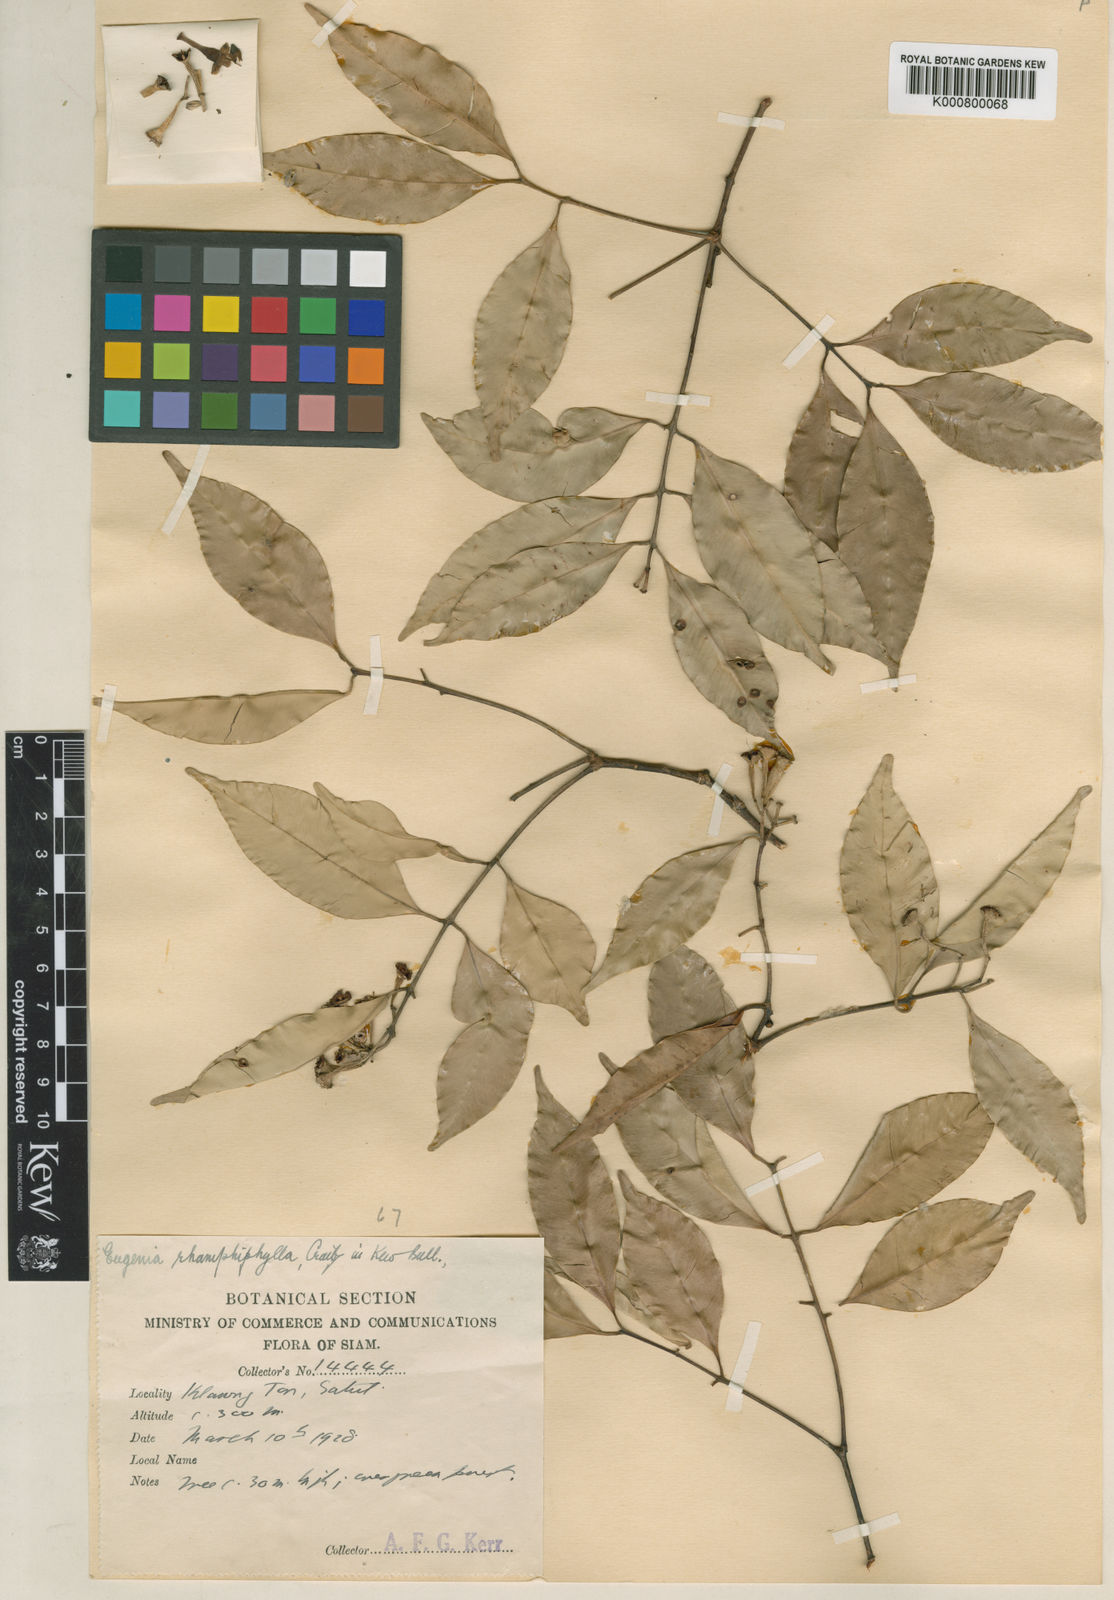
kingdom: Plantae
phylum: Tracheophyta
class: Magnoliopsida
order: Myrtales
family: Myrtaceae
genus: Syzygium
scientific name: Syzygium circumscissum
